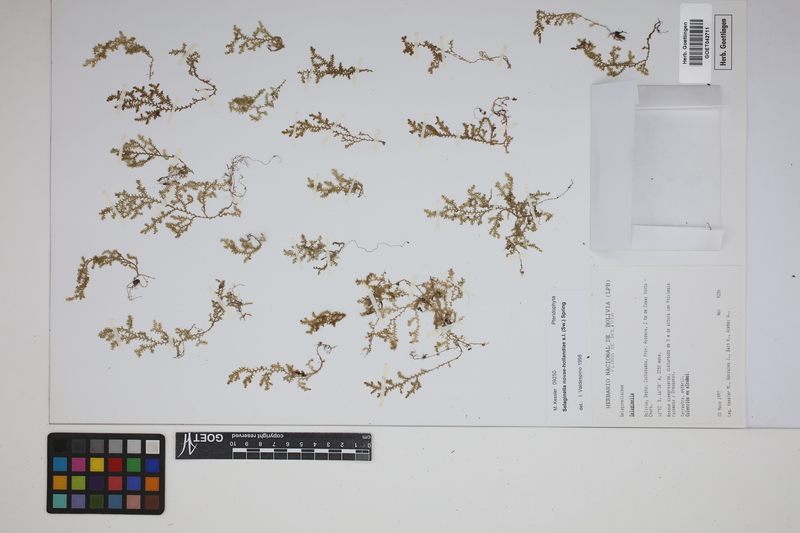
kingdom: Plantae
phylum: Tracheophyta
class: Lycopodiopsida
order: Selaginellales
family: Selaginellaceae
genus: Selaginella
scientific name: Selaginella novae-hollandiae
